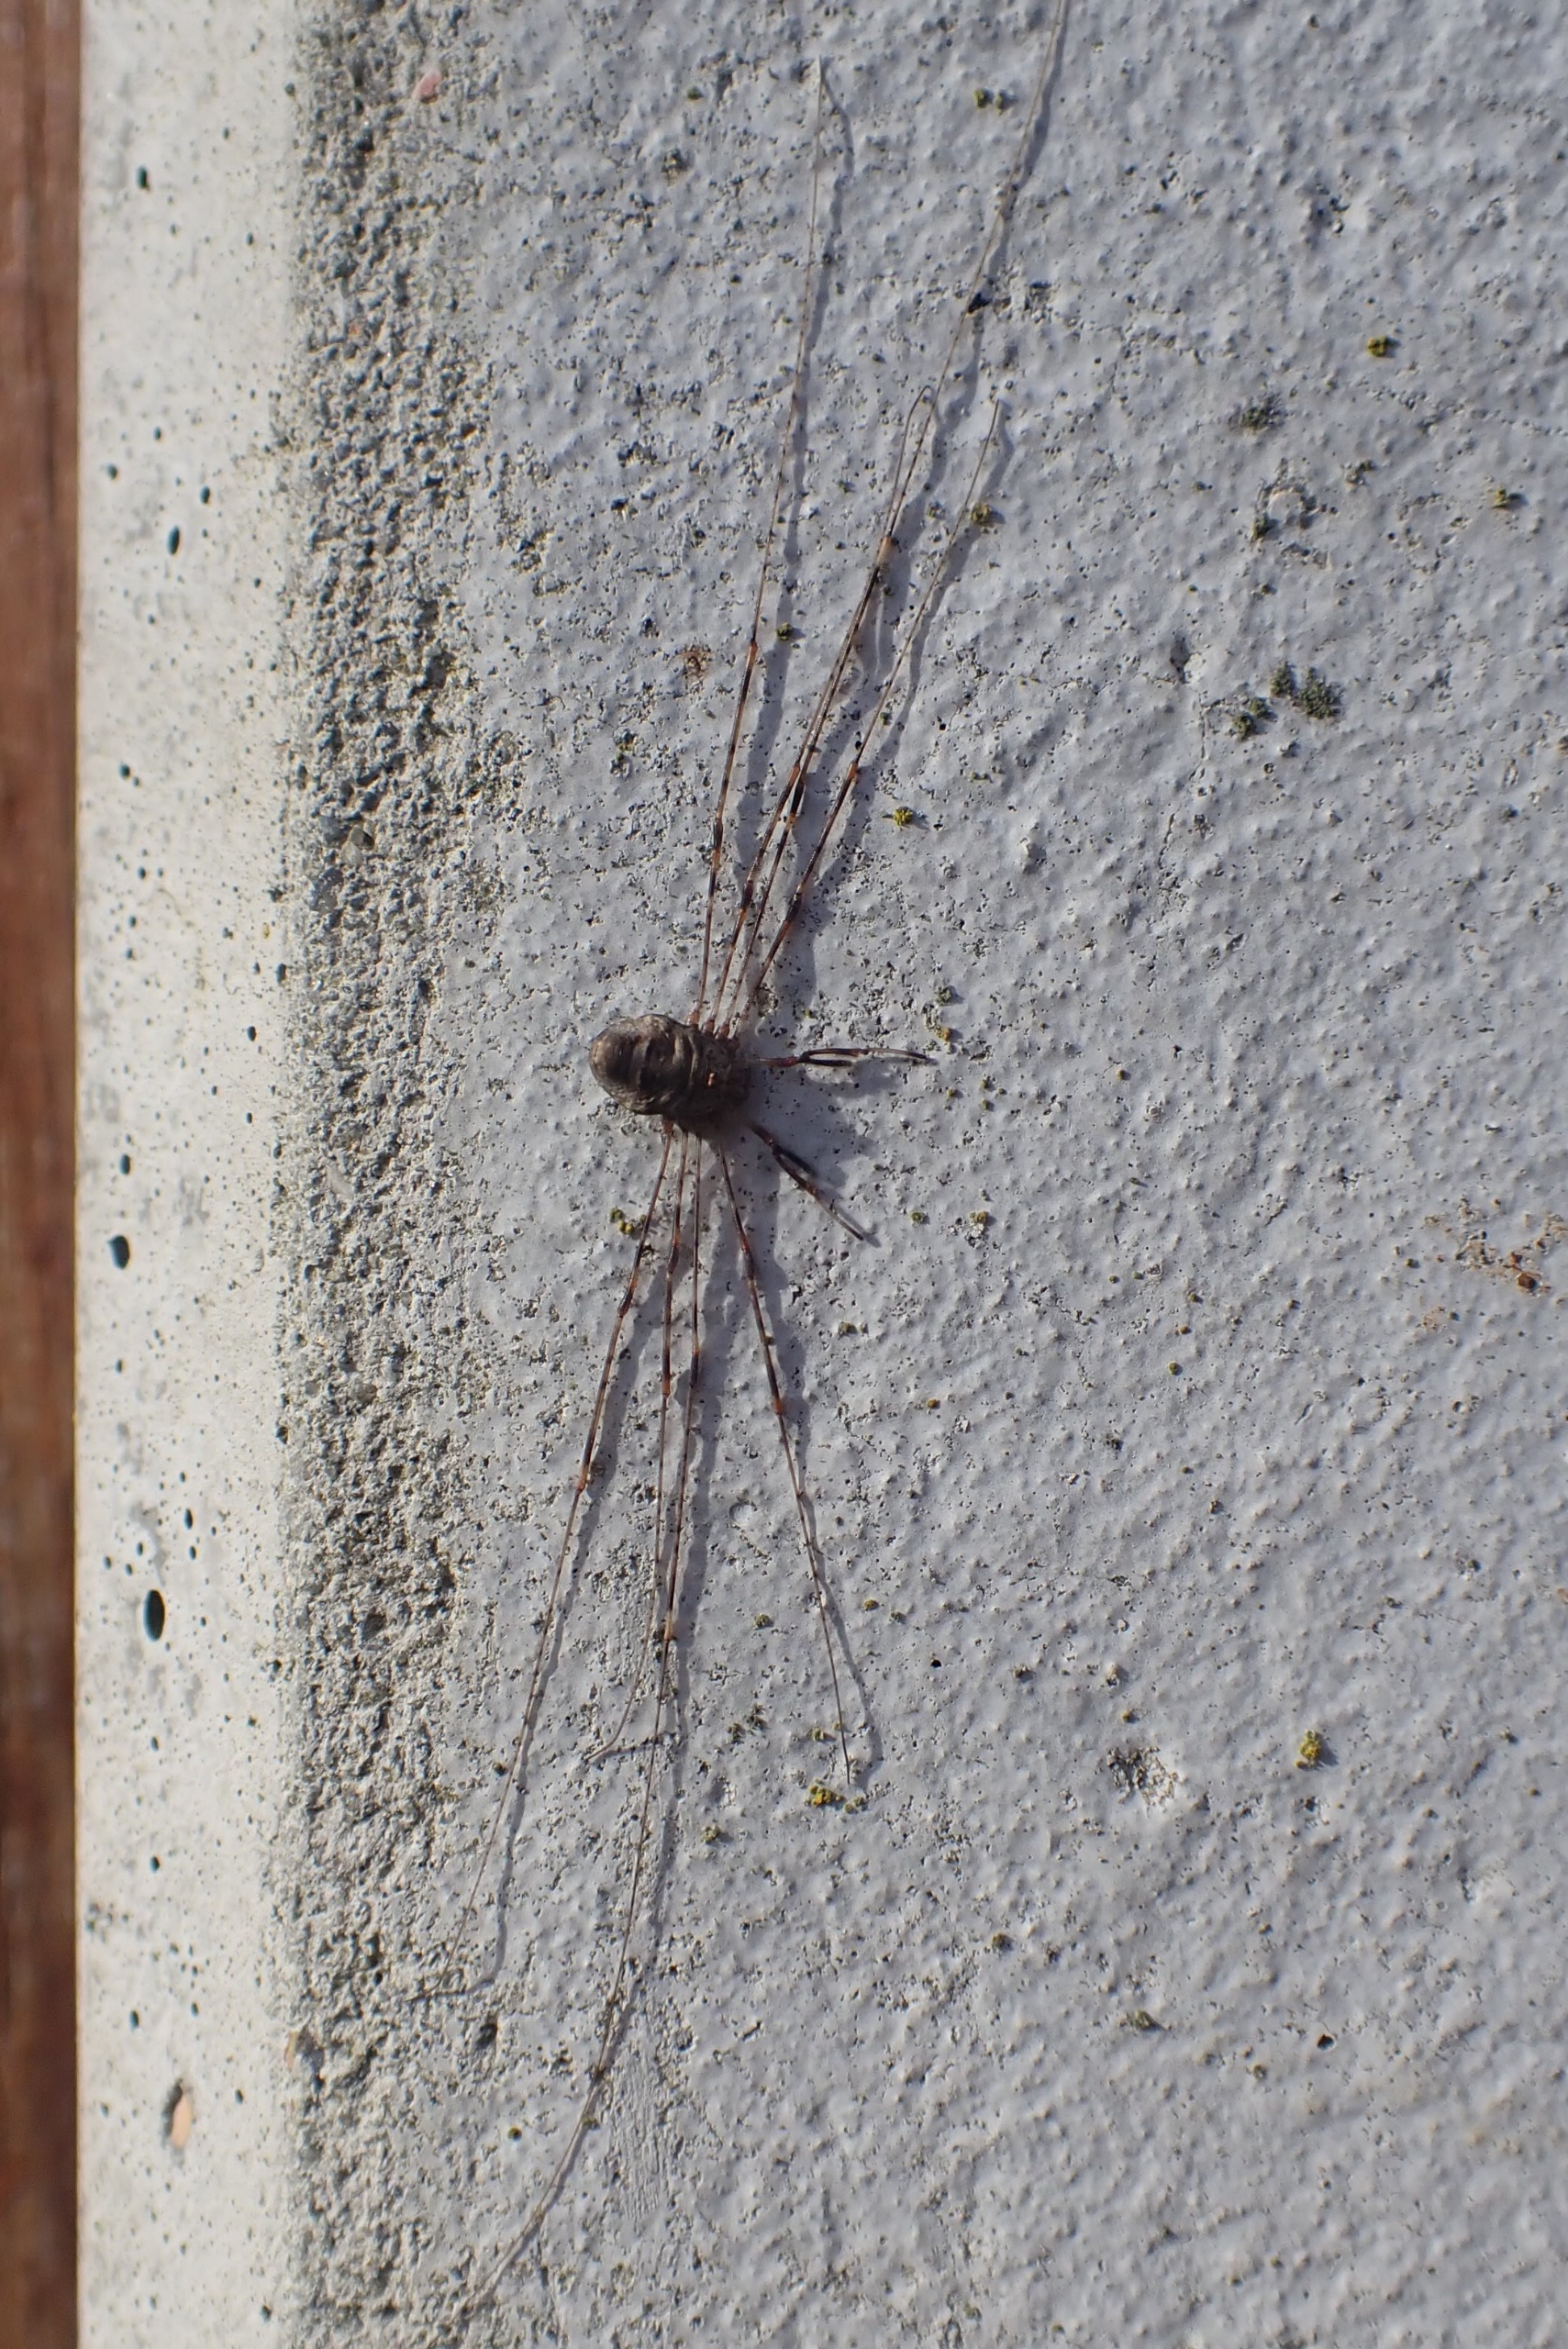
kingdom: Animalia
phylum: Arthropoda
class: Arachnida
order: Opiliones
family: Phalangiidae
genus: Dicranopalpus
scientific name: Dicranopalpus ramosus
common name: Gaffelmejer
